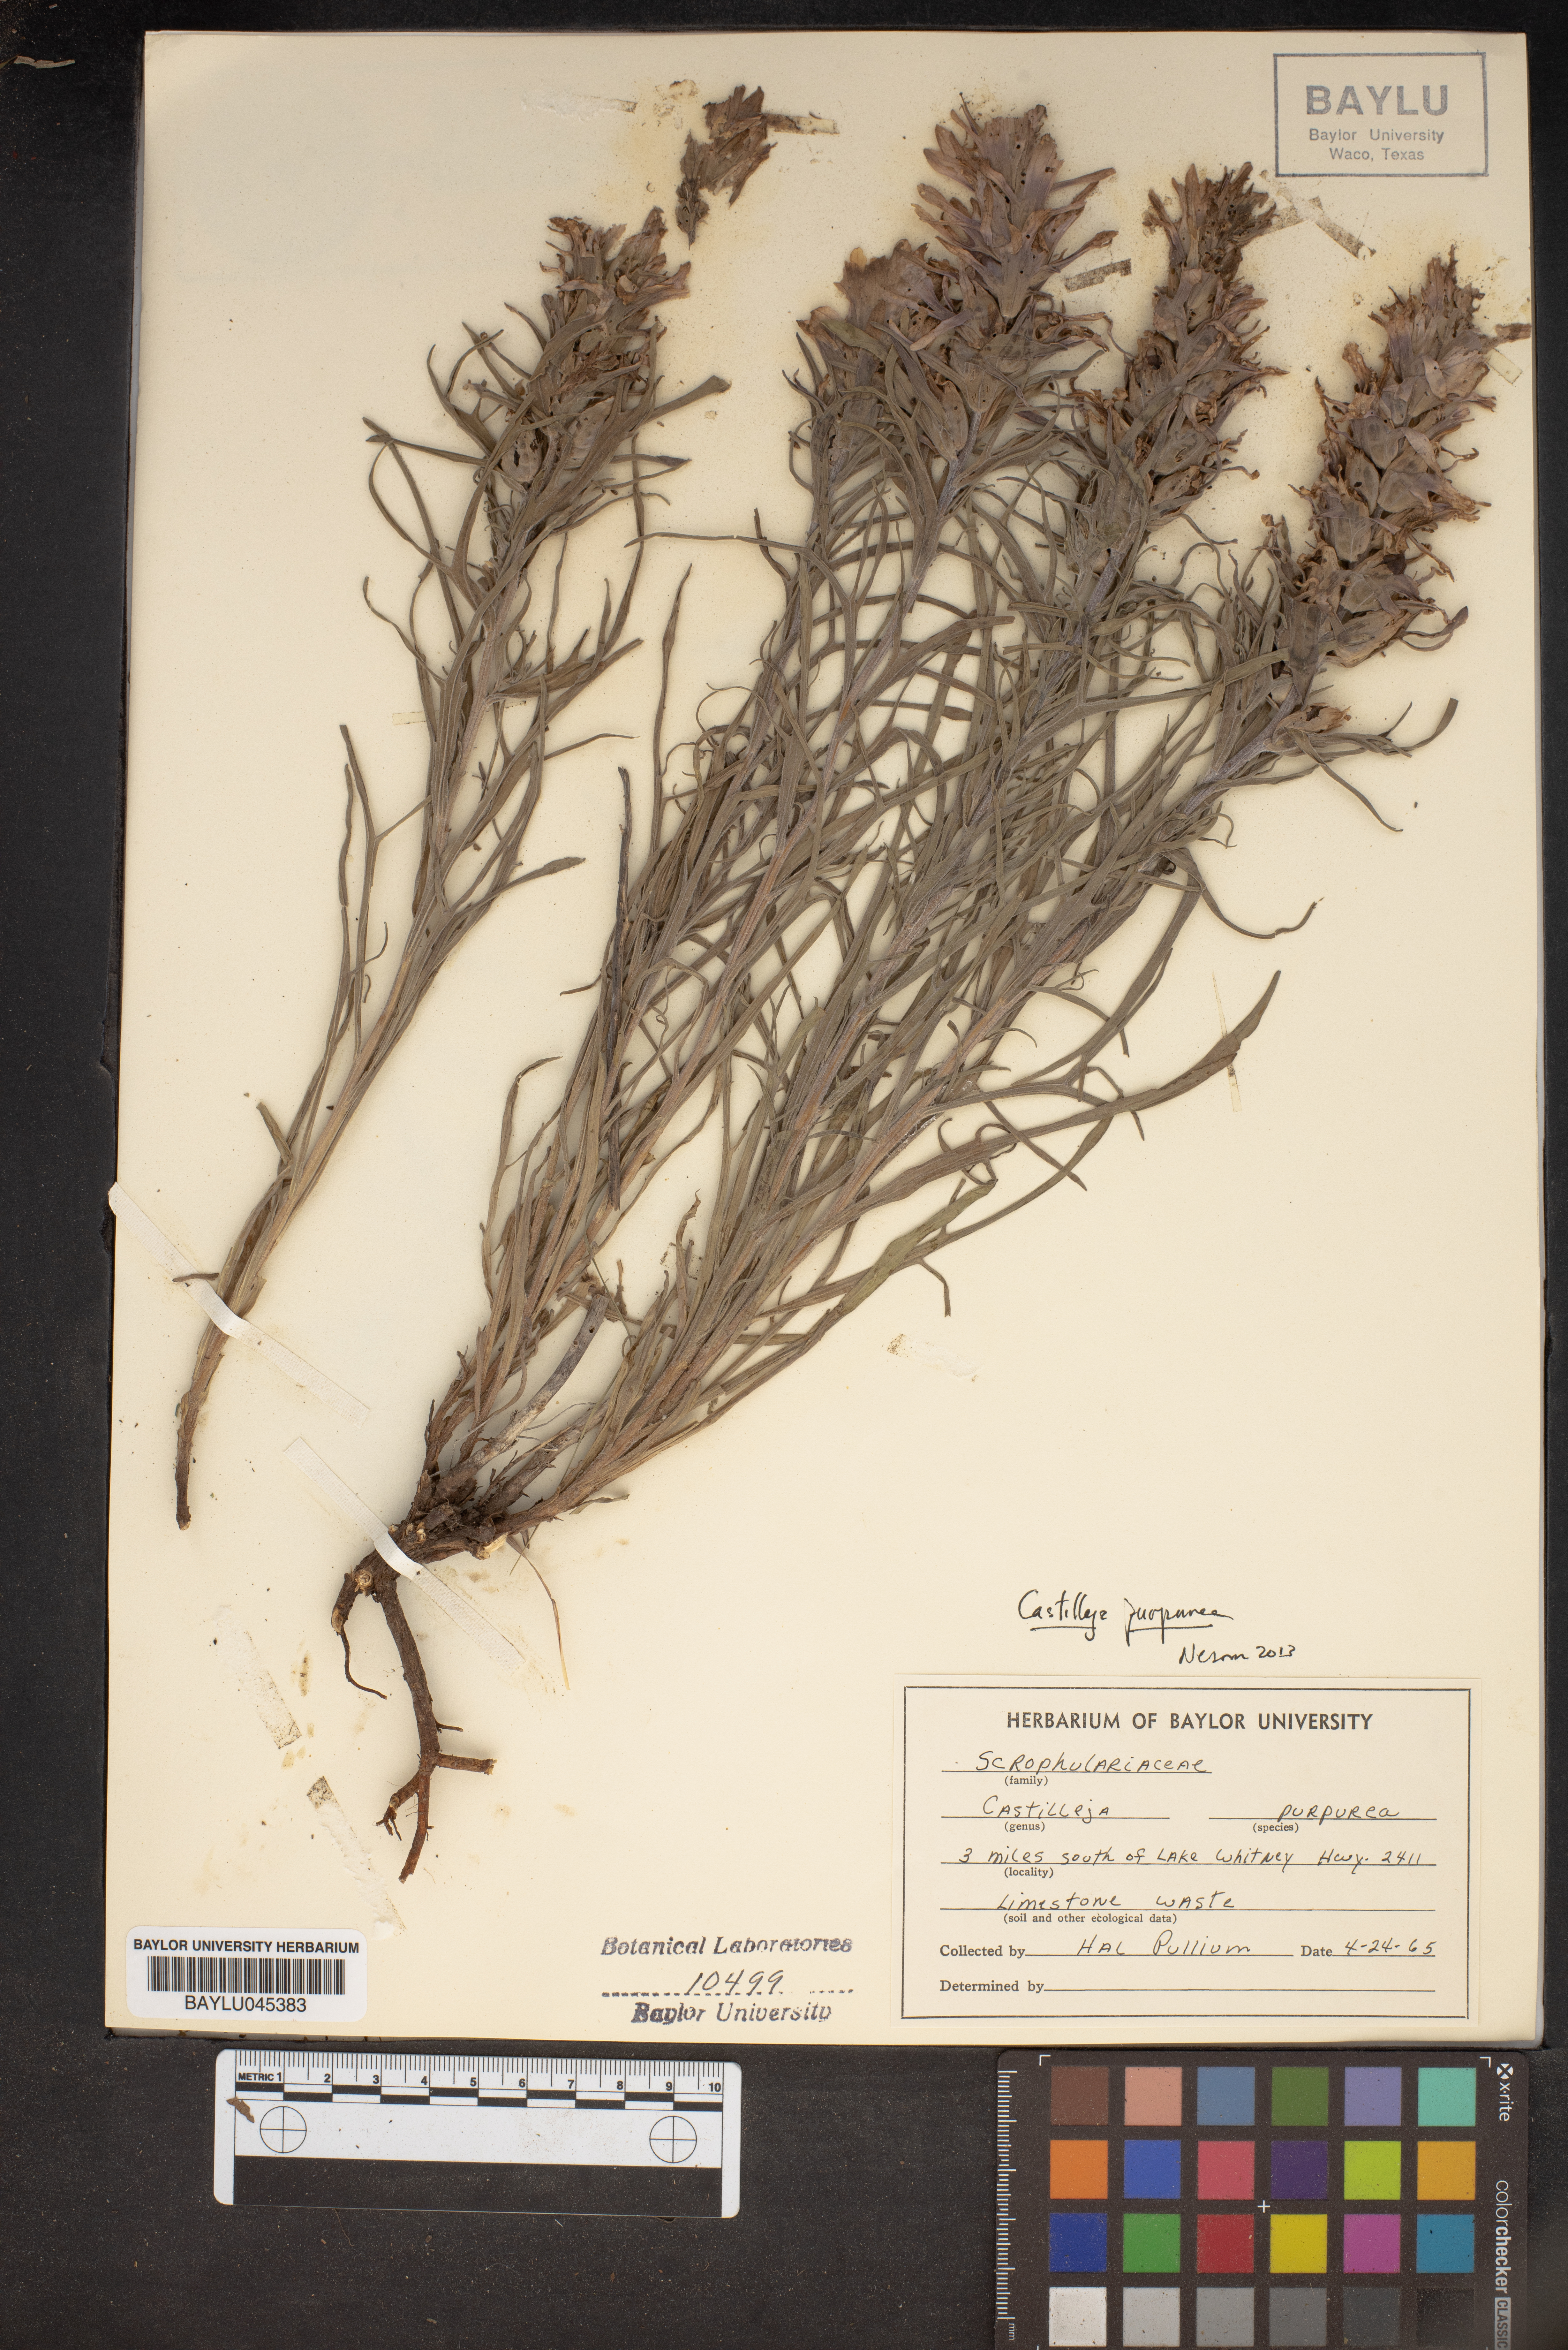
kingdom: Plantae
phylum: Tracheophyta
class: Magnoliopsida
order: Lamiales
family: Orobanchaceae
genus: Castilleja
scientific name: Castilleja purpurea
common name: Plains paintbrush
